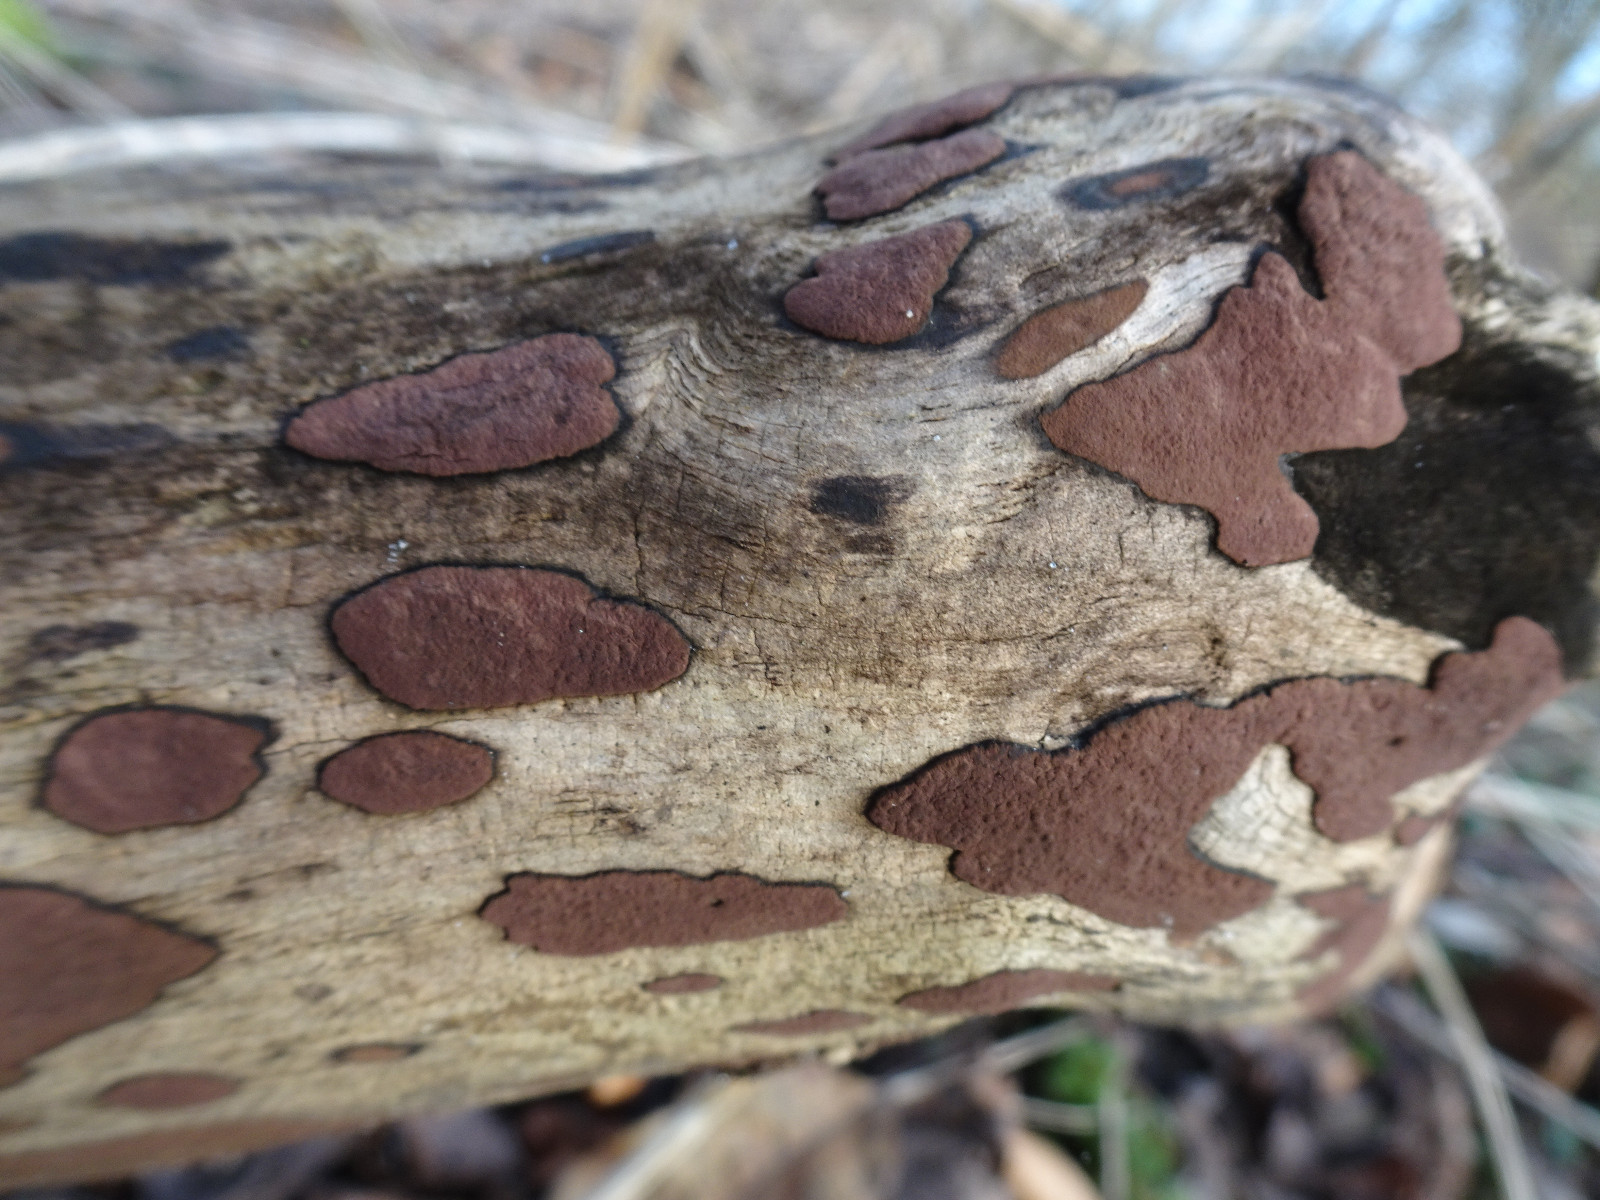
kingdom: Fungi
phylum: Ascomycota
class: Sordariomycetes
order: Xylariales
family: Hypoxylaceae
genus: Hypoxylon
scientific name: Hypoxylon petriniae
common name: nedsænket kulbær
